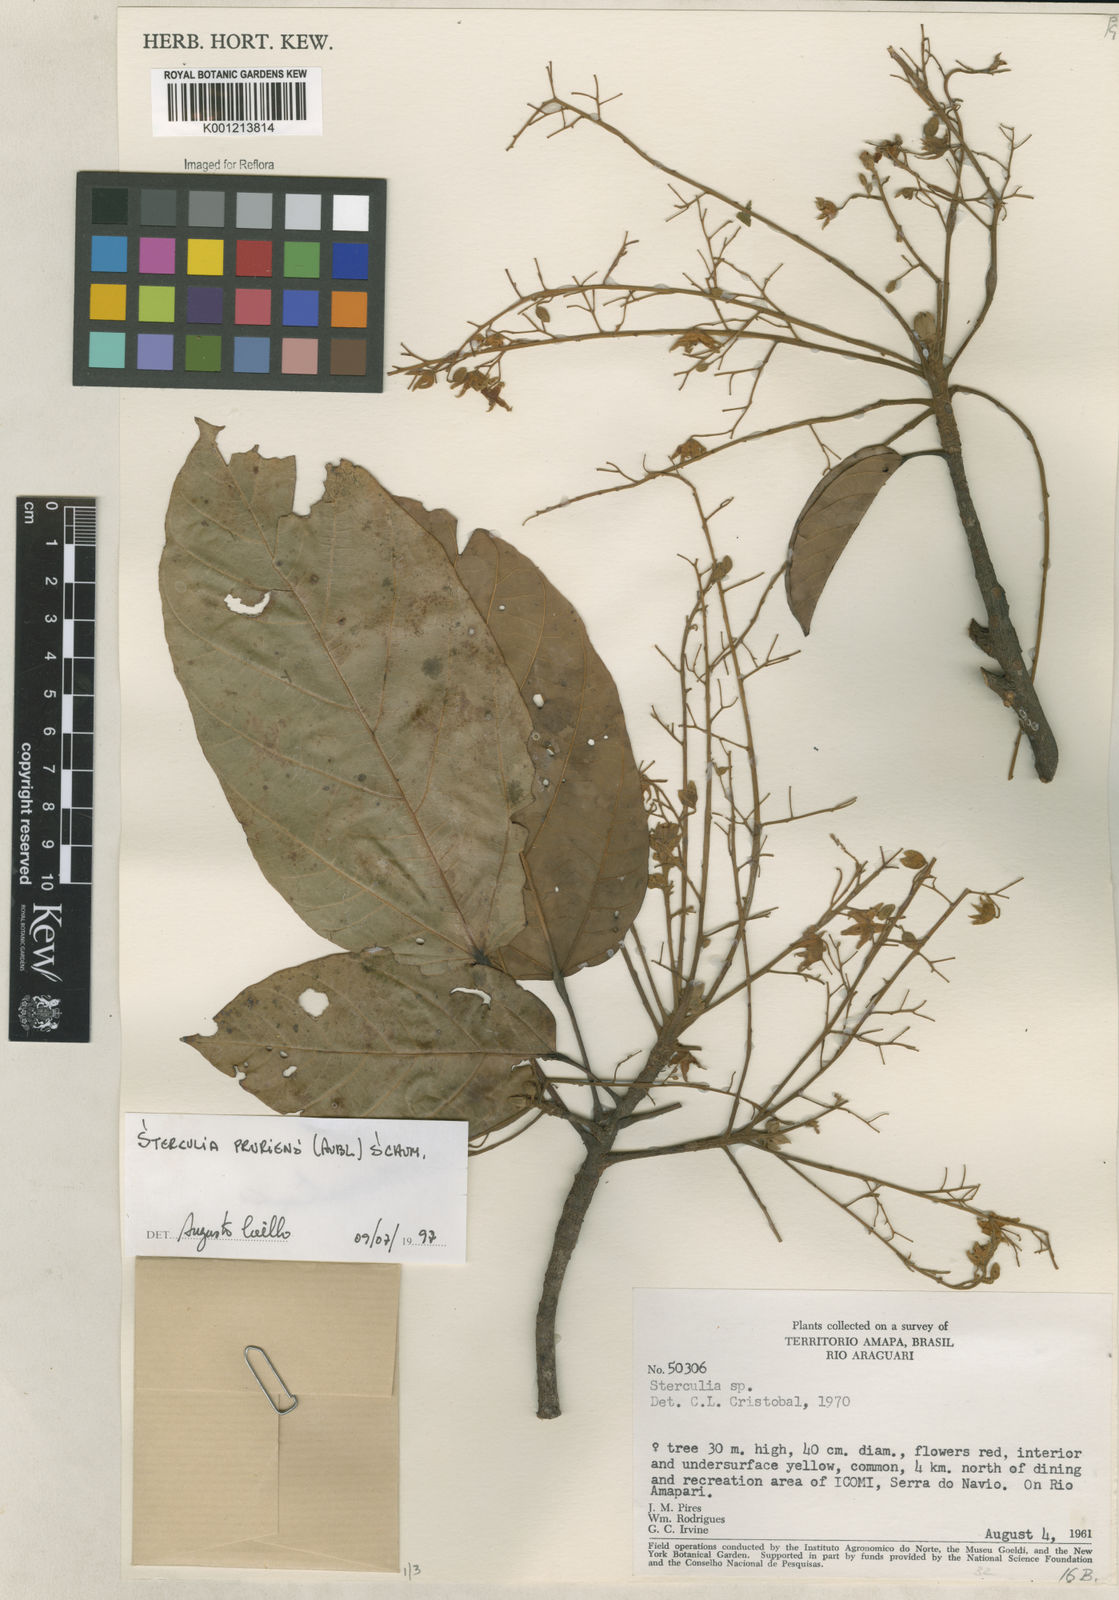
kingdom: Plantae
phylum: Tracheophyta
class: Magnoliopsida
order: Malvales
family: Malvaceae
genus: Sterculia
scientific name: Sterculia pruriens
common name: Grand mahot
